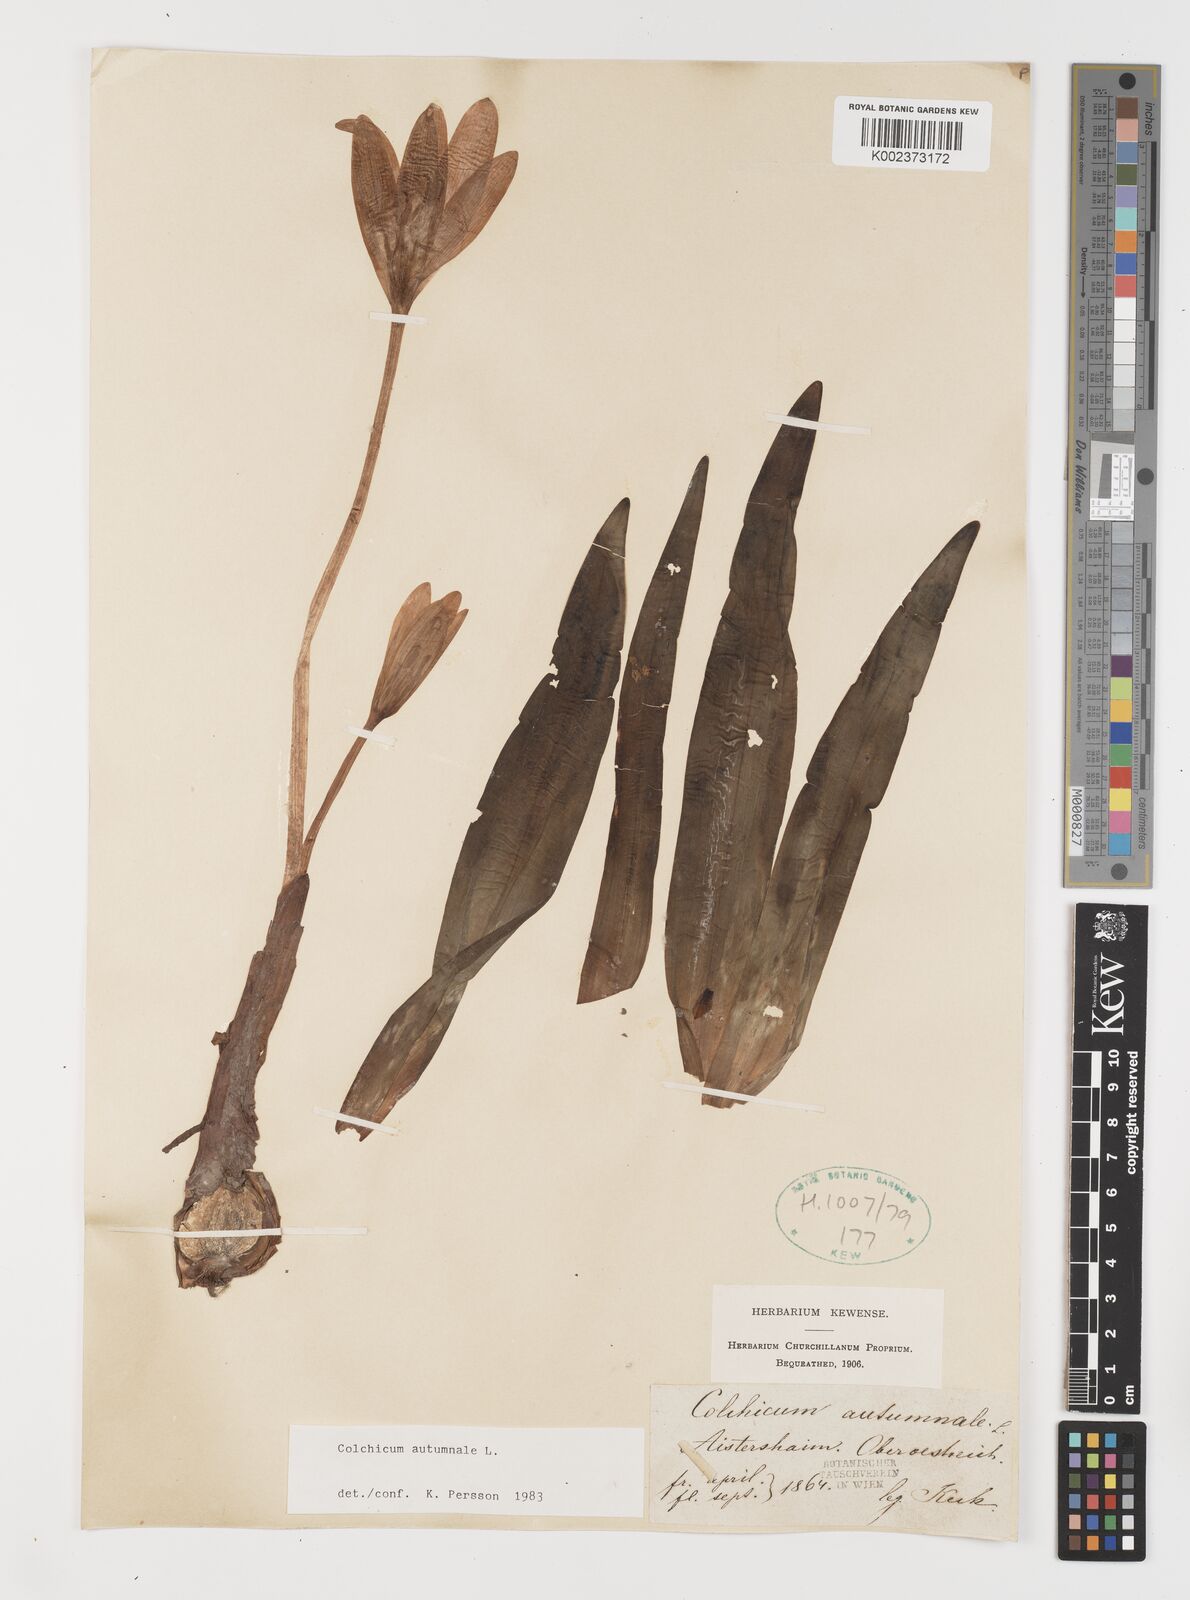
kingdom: Plantae
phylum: Tracheophyta
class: Liliopsida
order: Liliales
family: Colchicaceae
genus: Colchicum
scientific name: Colchicum autumnale
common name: Autumn crocus
